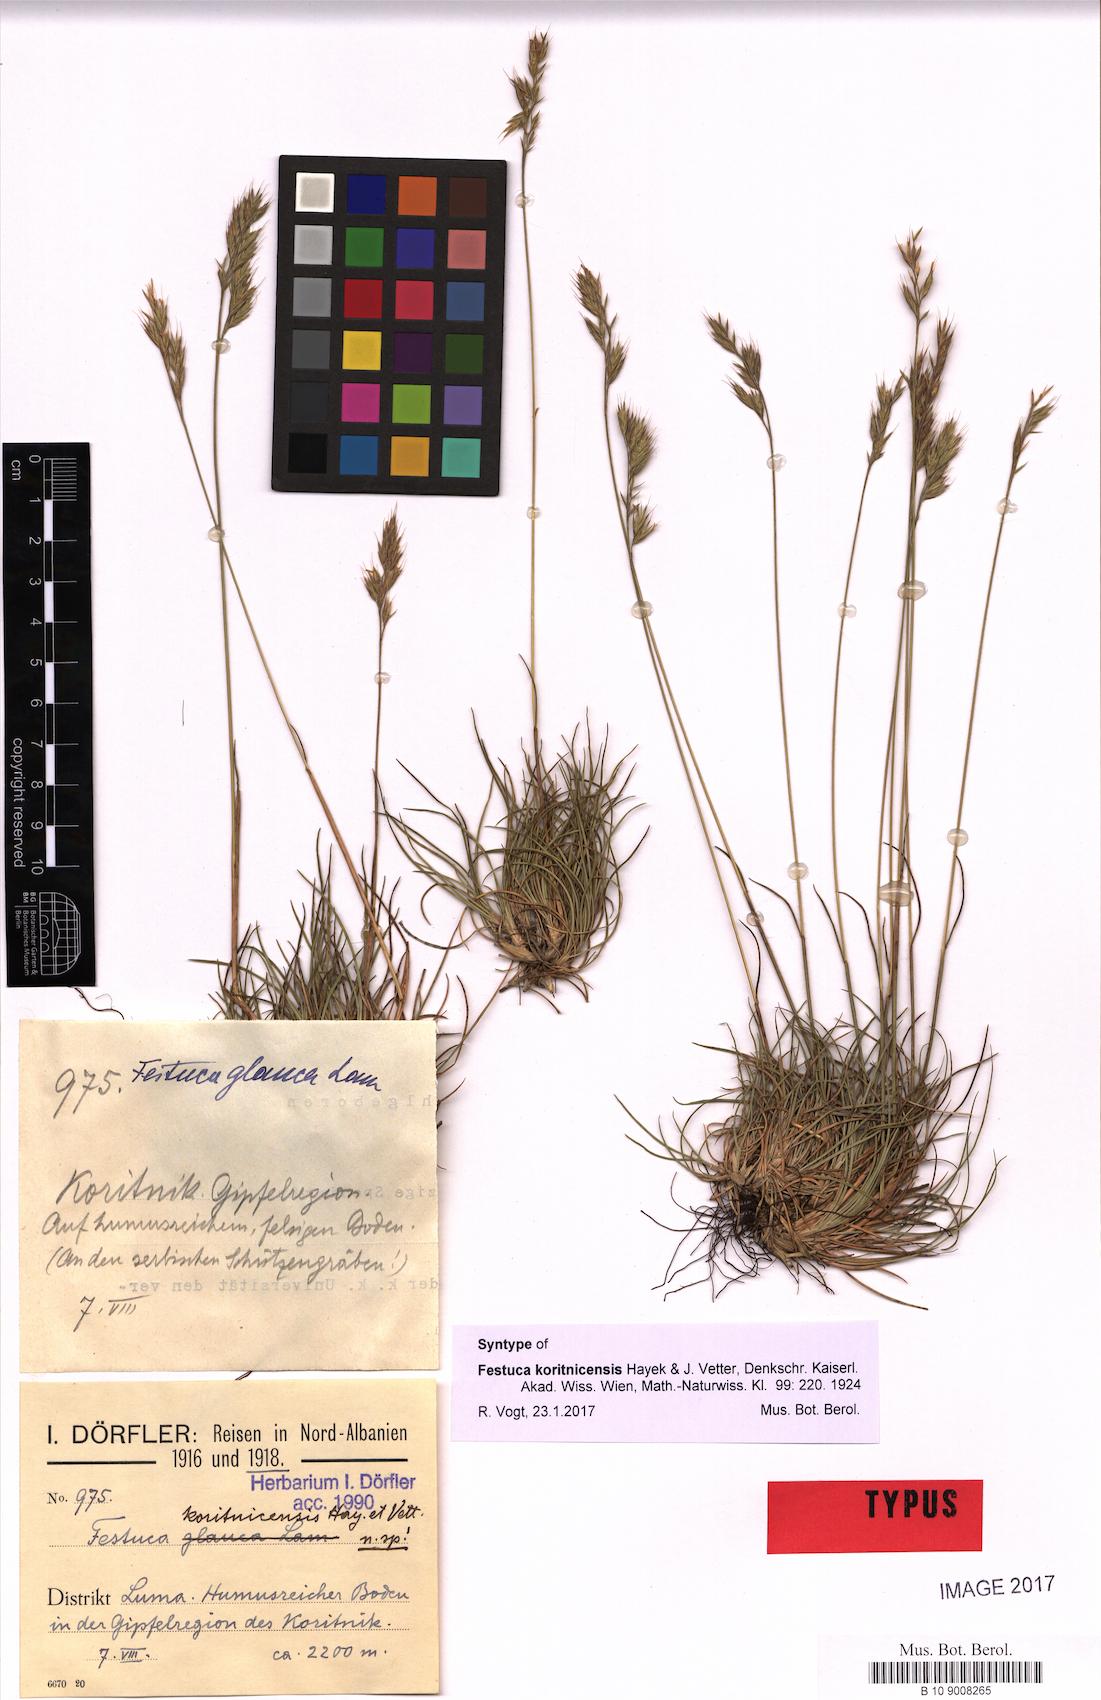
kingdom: Plantae
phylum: Tracheophyta
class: Liliopsida
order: Poales
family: Poaceae
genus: Festuca
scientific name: Festuca koritnicensis
